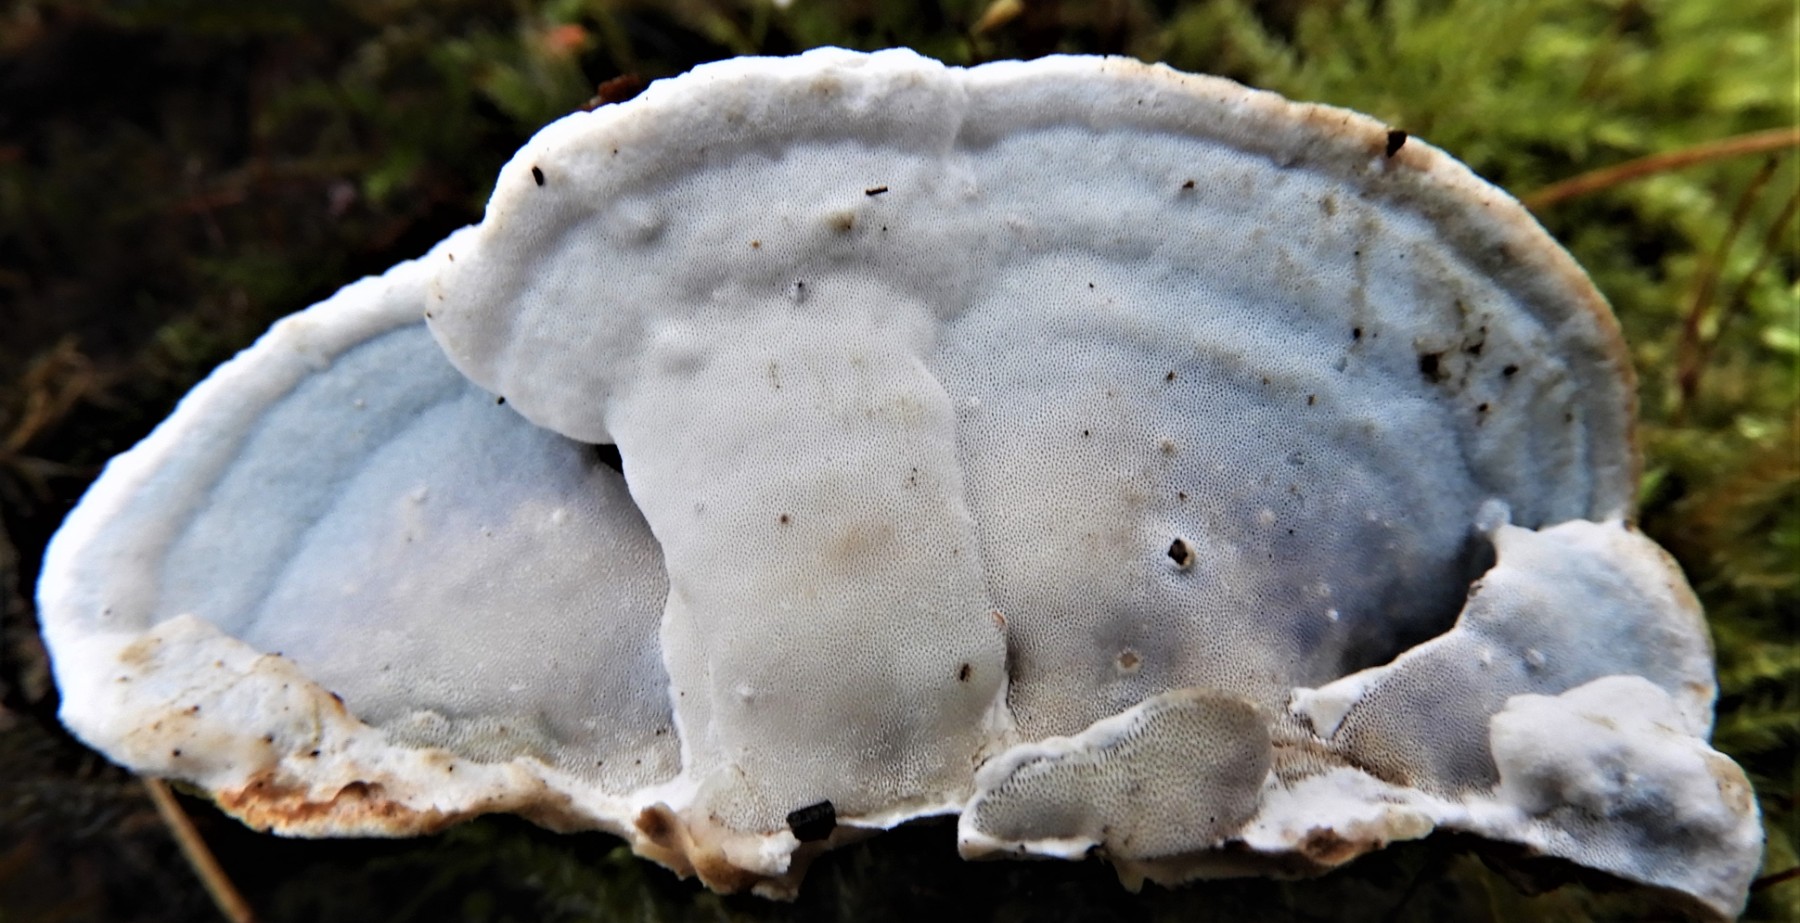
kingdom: Fungi
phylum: Basidiomycota
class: Agaricomycetes
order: Polyporales
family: Incrustoporiaceae
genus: Skeletocutis
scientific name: Skeletocutis nemoralis
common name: stor krystalporesvamp
